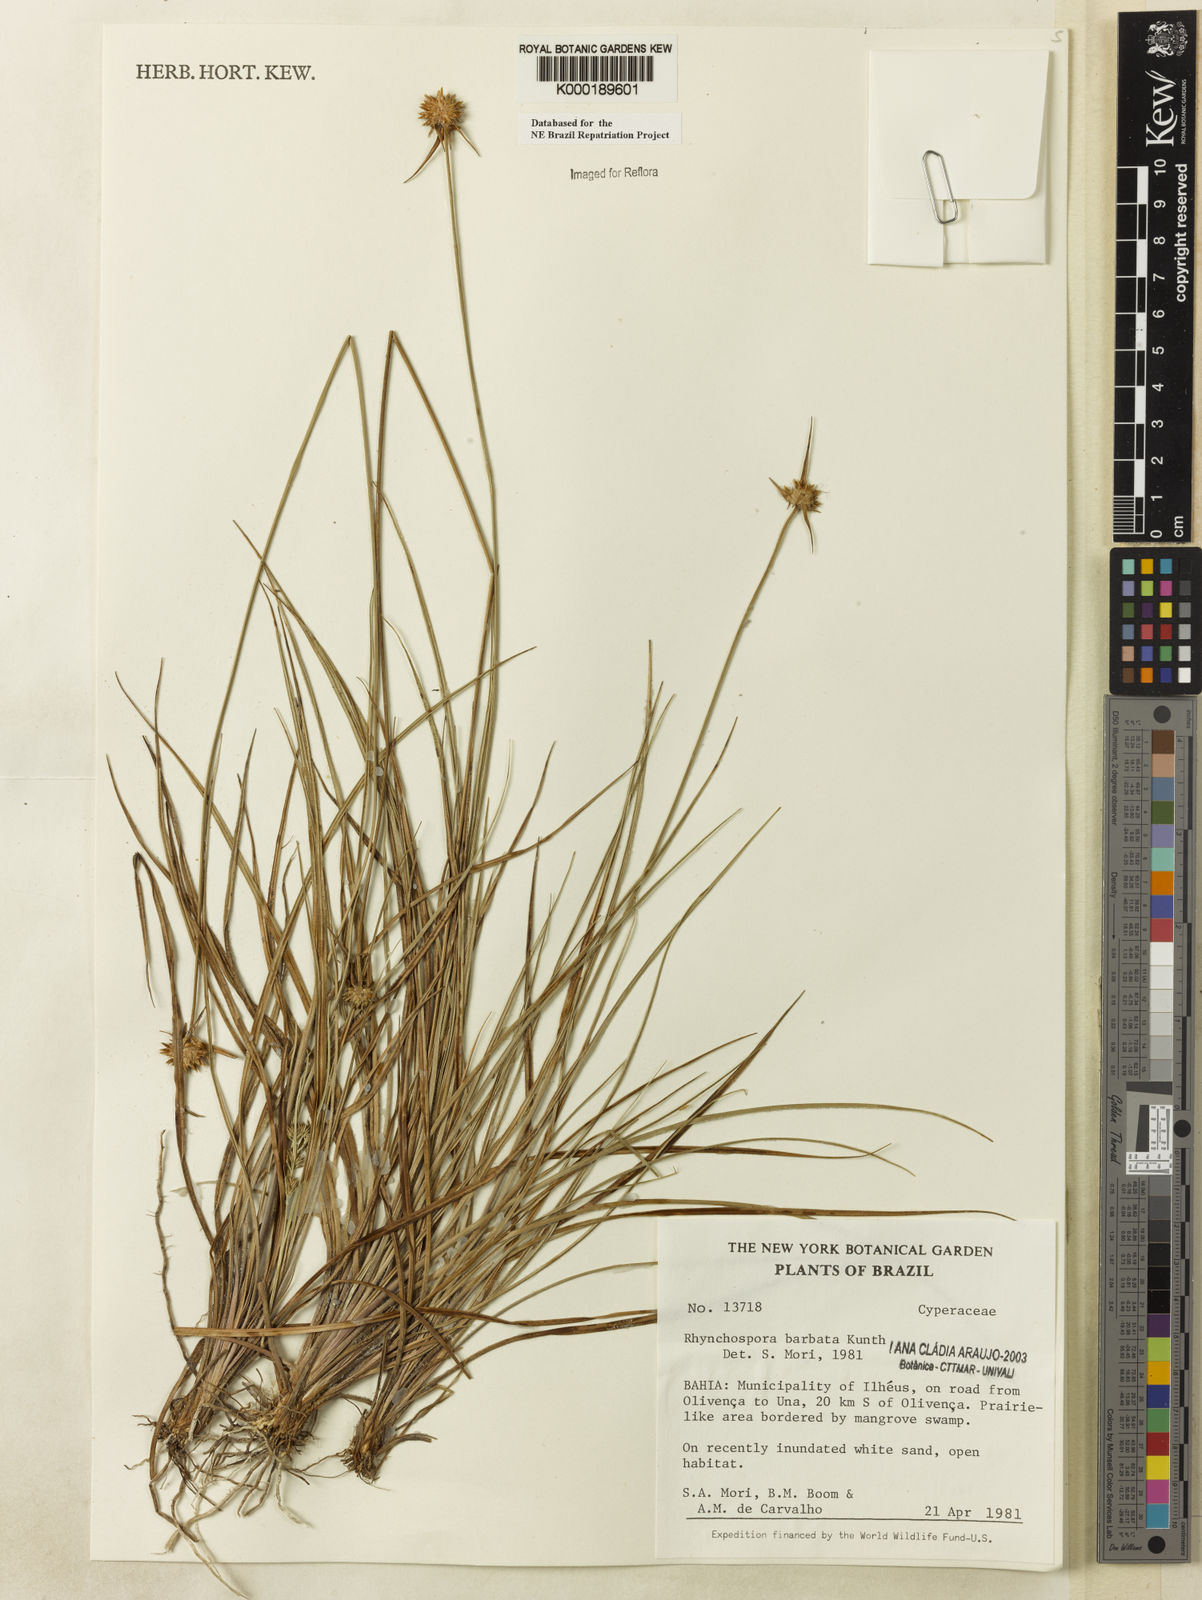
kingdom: Plantae
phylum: Tracheophyta
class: Liliopsida
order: Poales
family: Cyperaceae
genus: Rhynchospora
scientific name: Rhynchospora barbata
